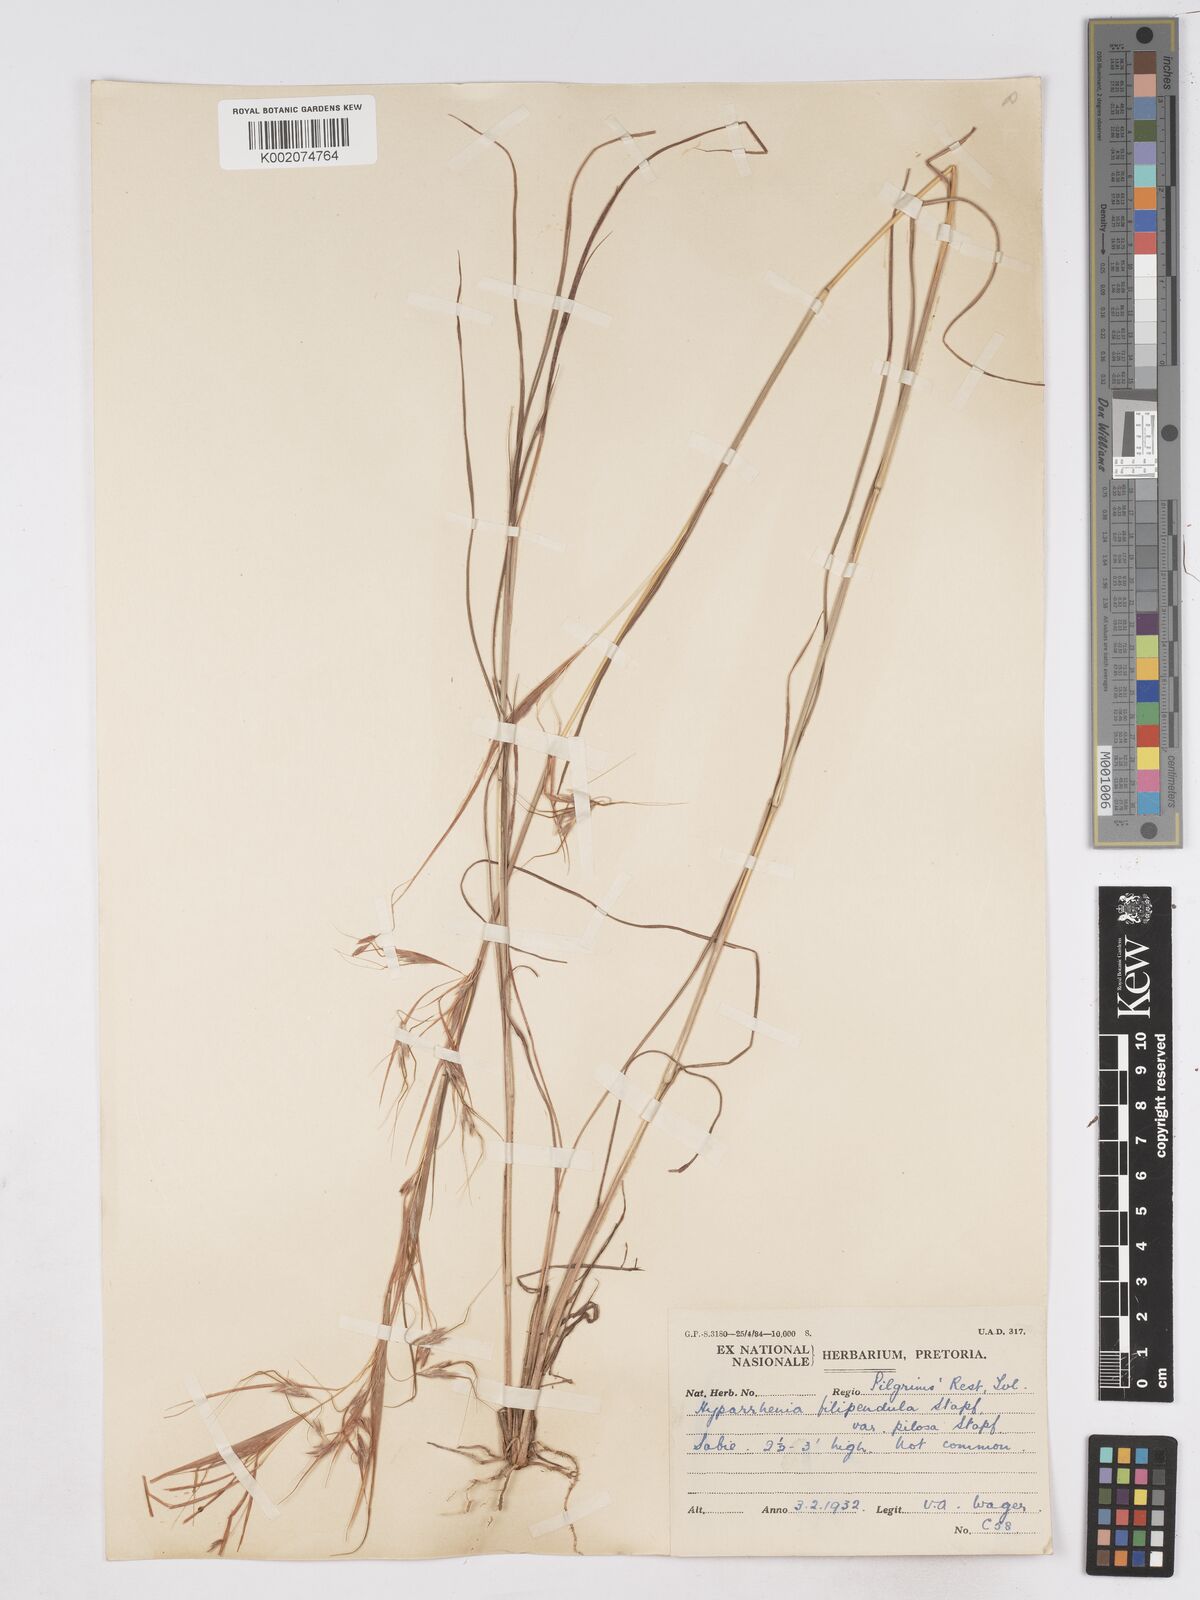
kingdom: Plantae
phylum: Tracheophyta
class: Liliopsida
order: Poales
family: Poaceae
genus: Hyparrhenia
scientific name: Hyparrhenia filipendula
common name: Tambookie grass
